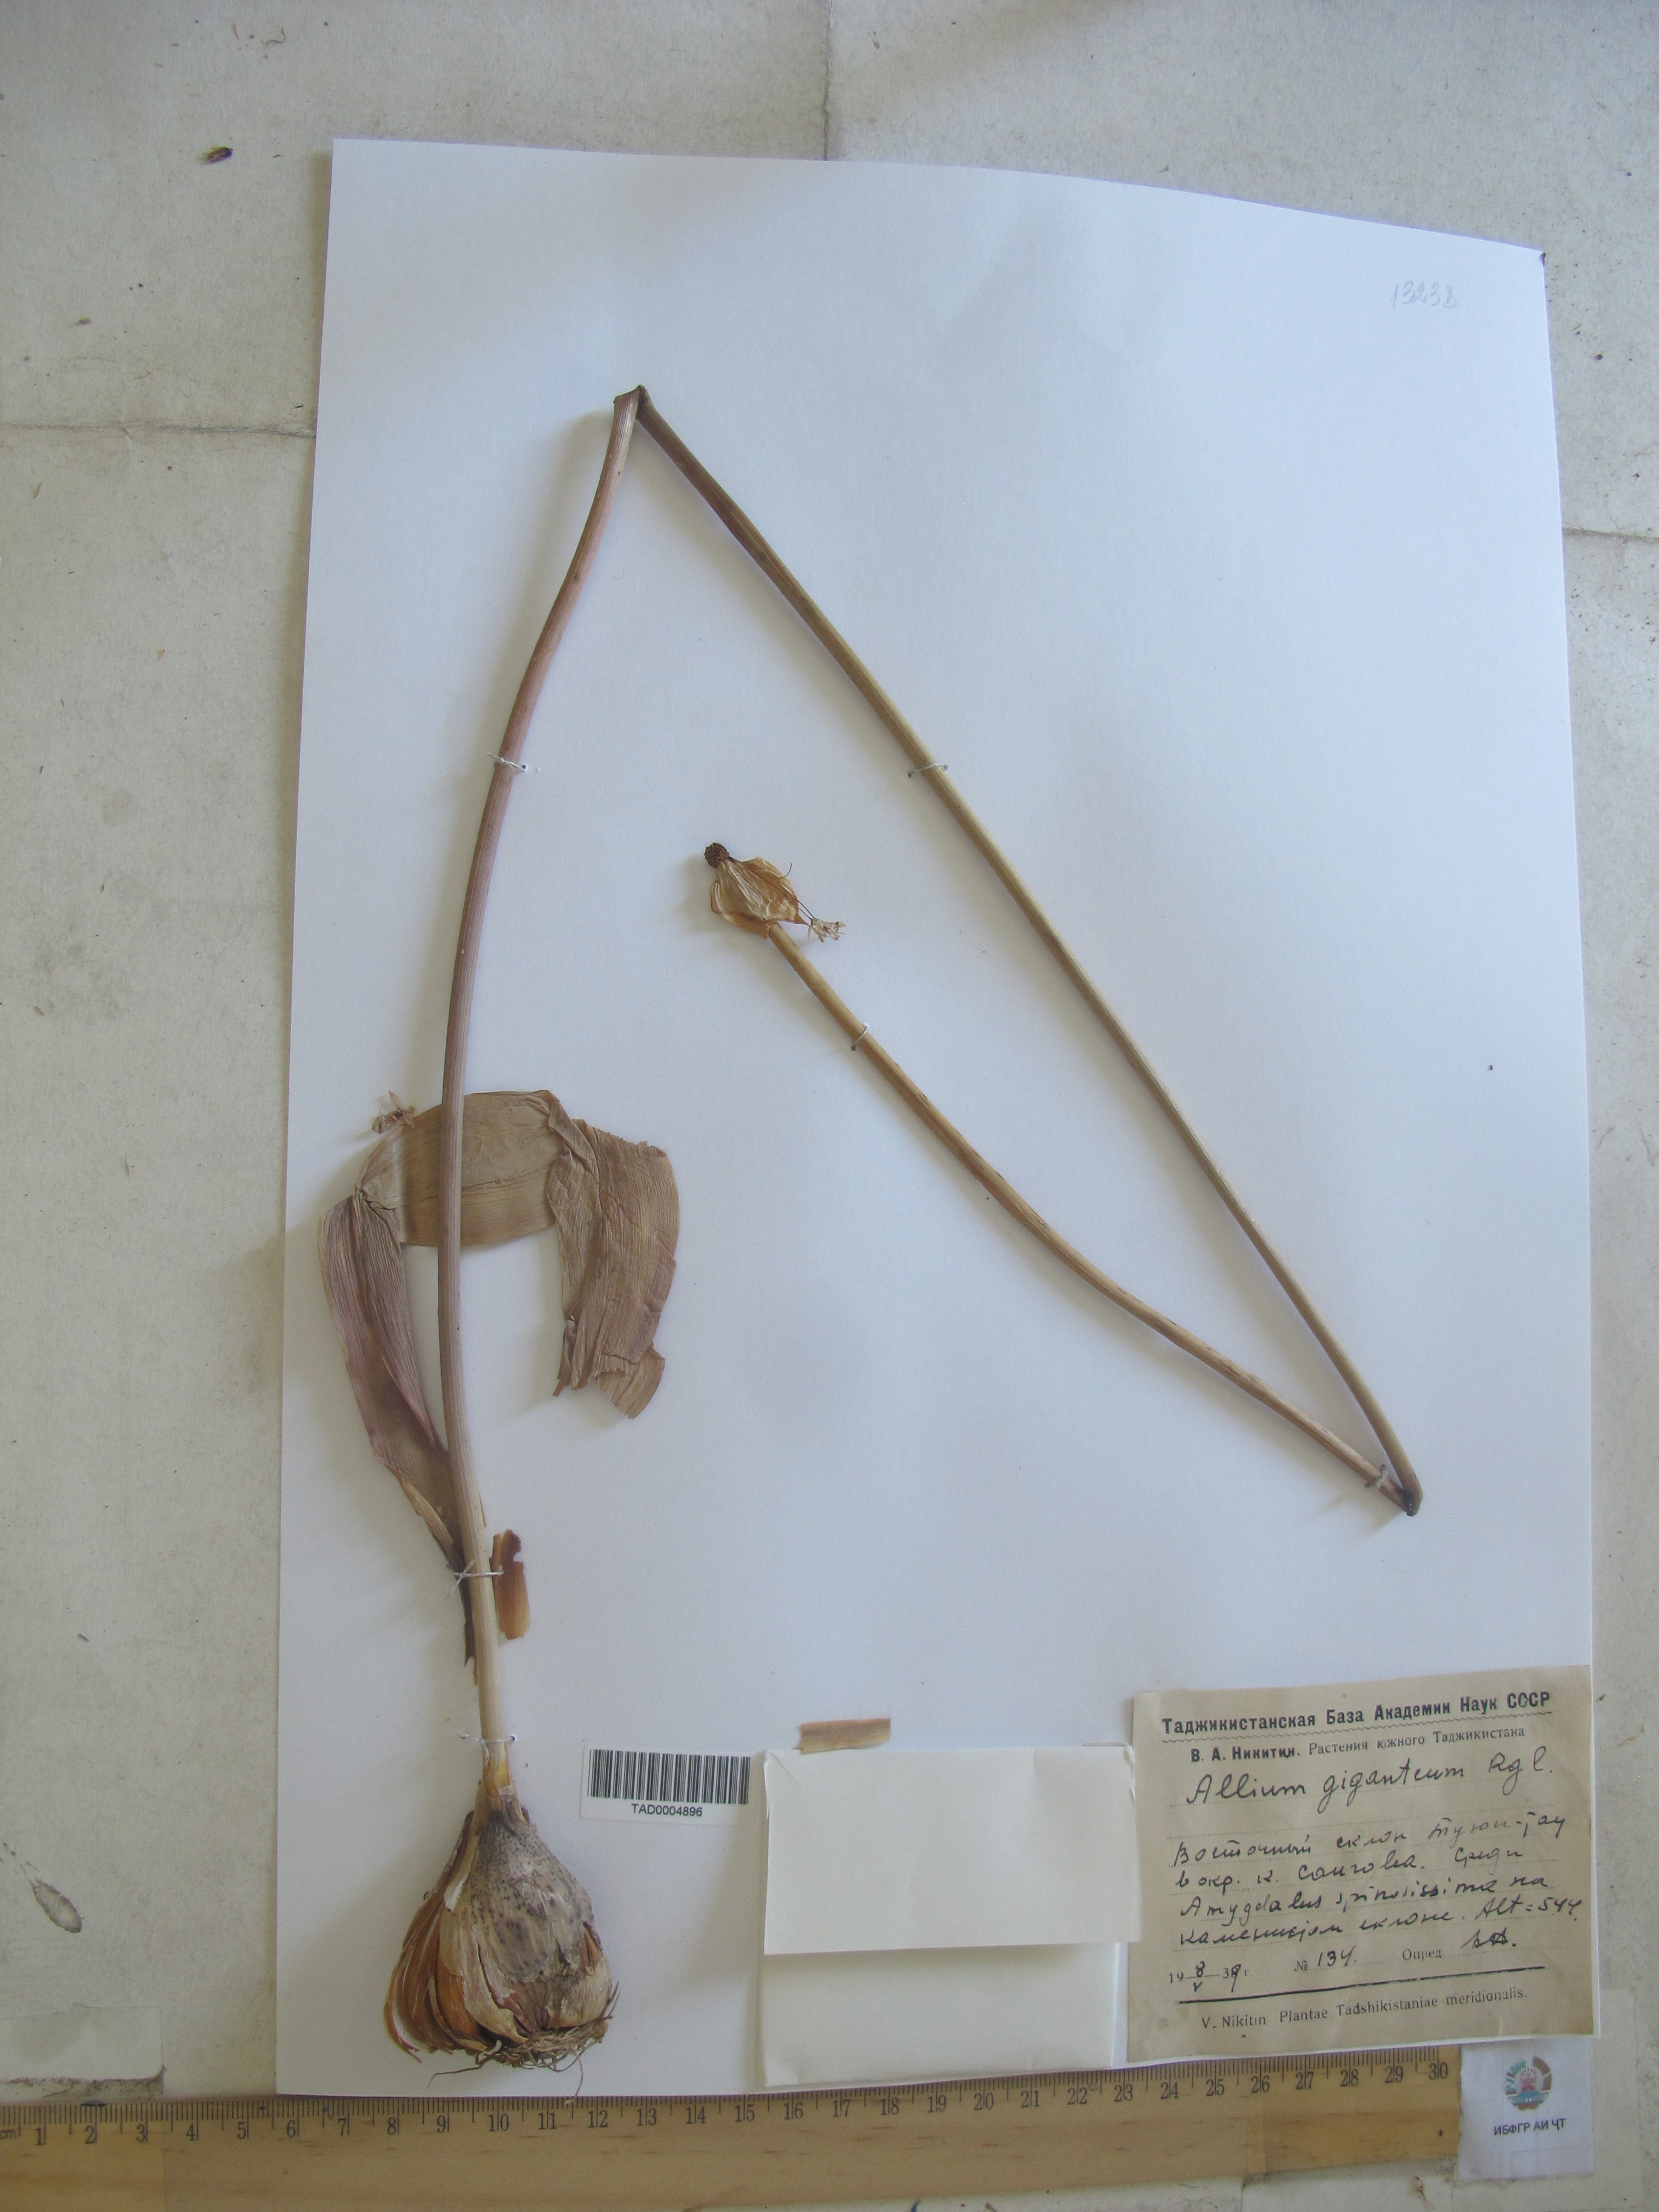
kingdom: Plantae
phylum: Tracheophyta
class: Liliopsida
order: Asparagales
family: Amaryllidaceae
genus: Allium
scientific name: Allium giganteum
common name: Giant onion
